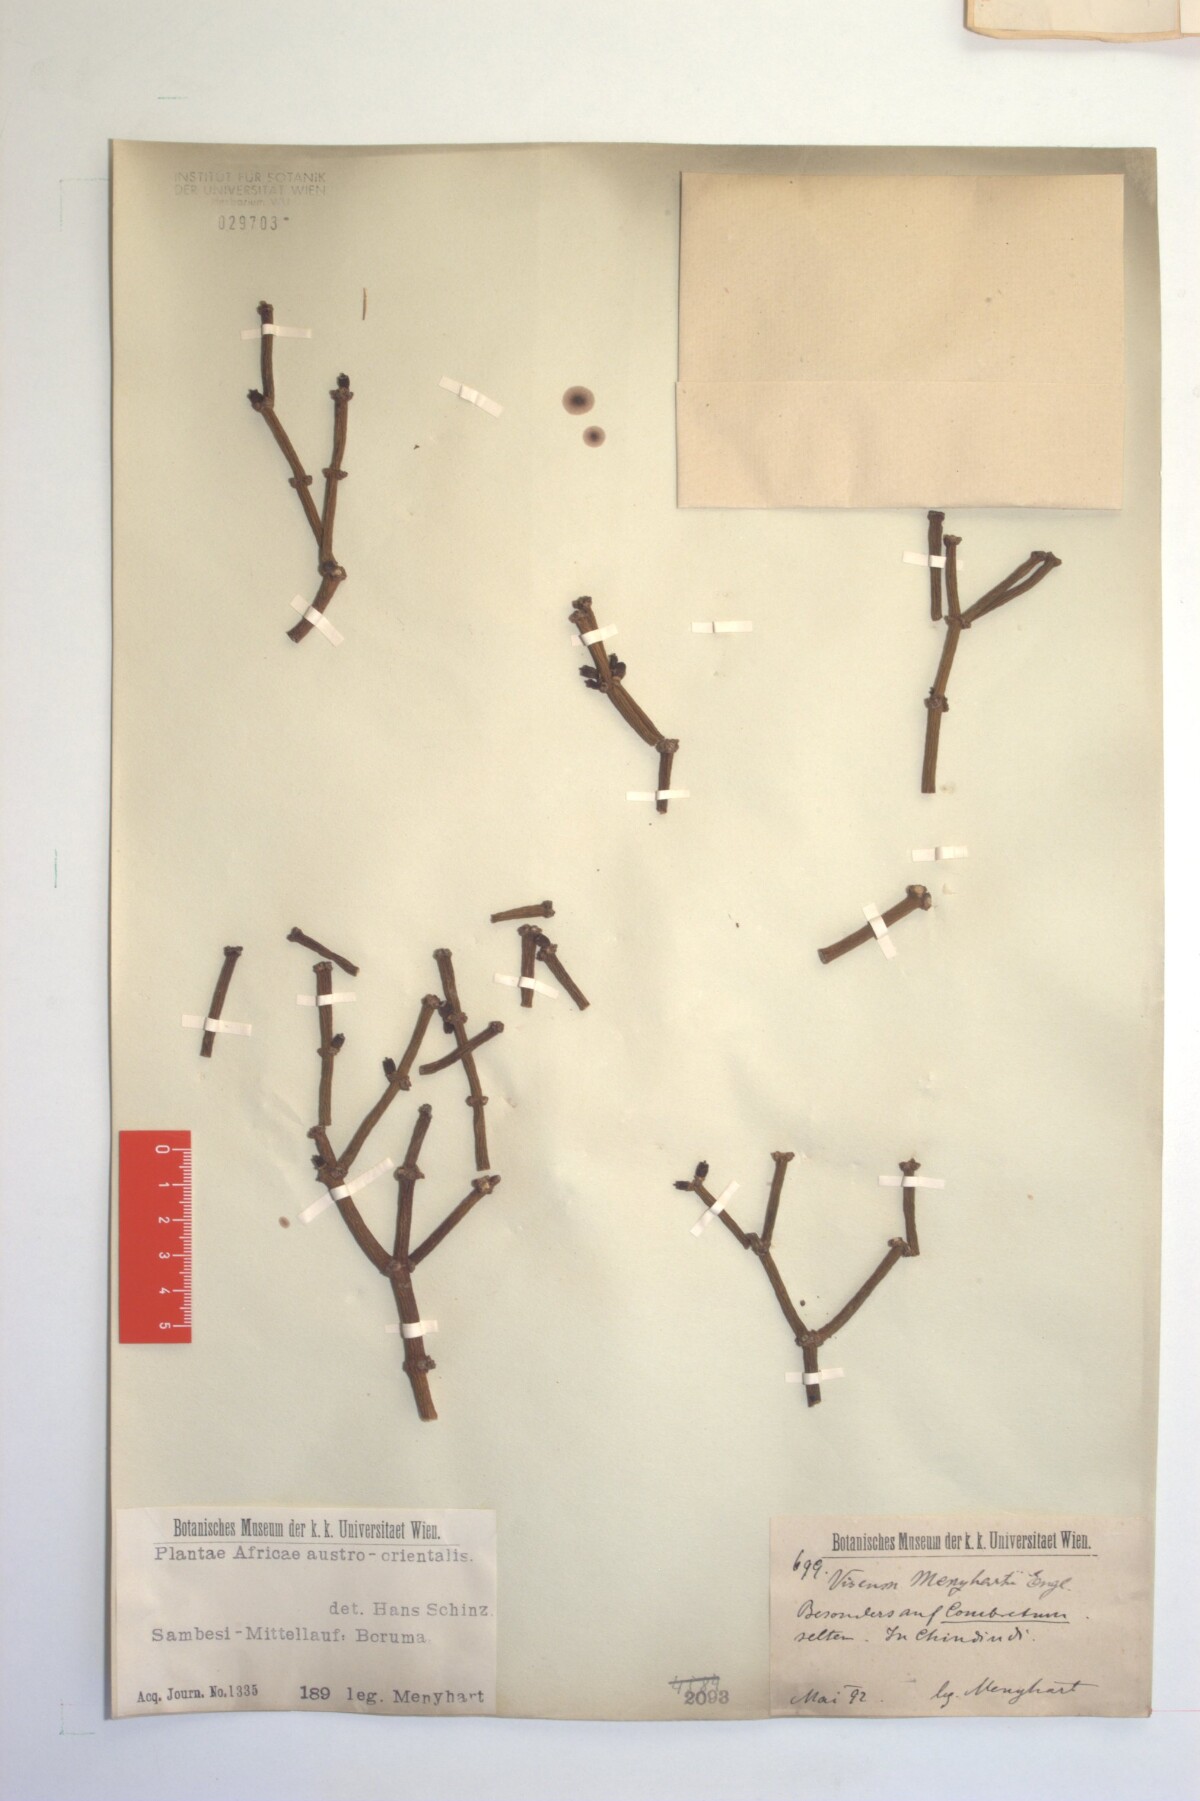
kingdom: Plantae
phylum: Tracheophyta
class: Magnoliopsida
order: Santalales
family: Viscaceae
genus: Viscum
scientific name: Viscum menyhartii
